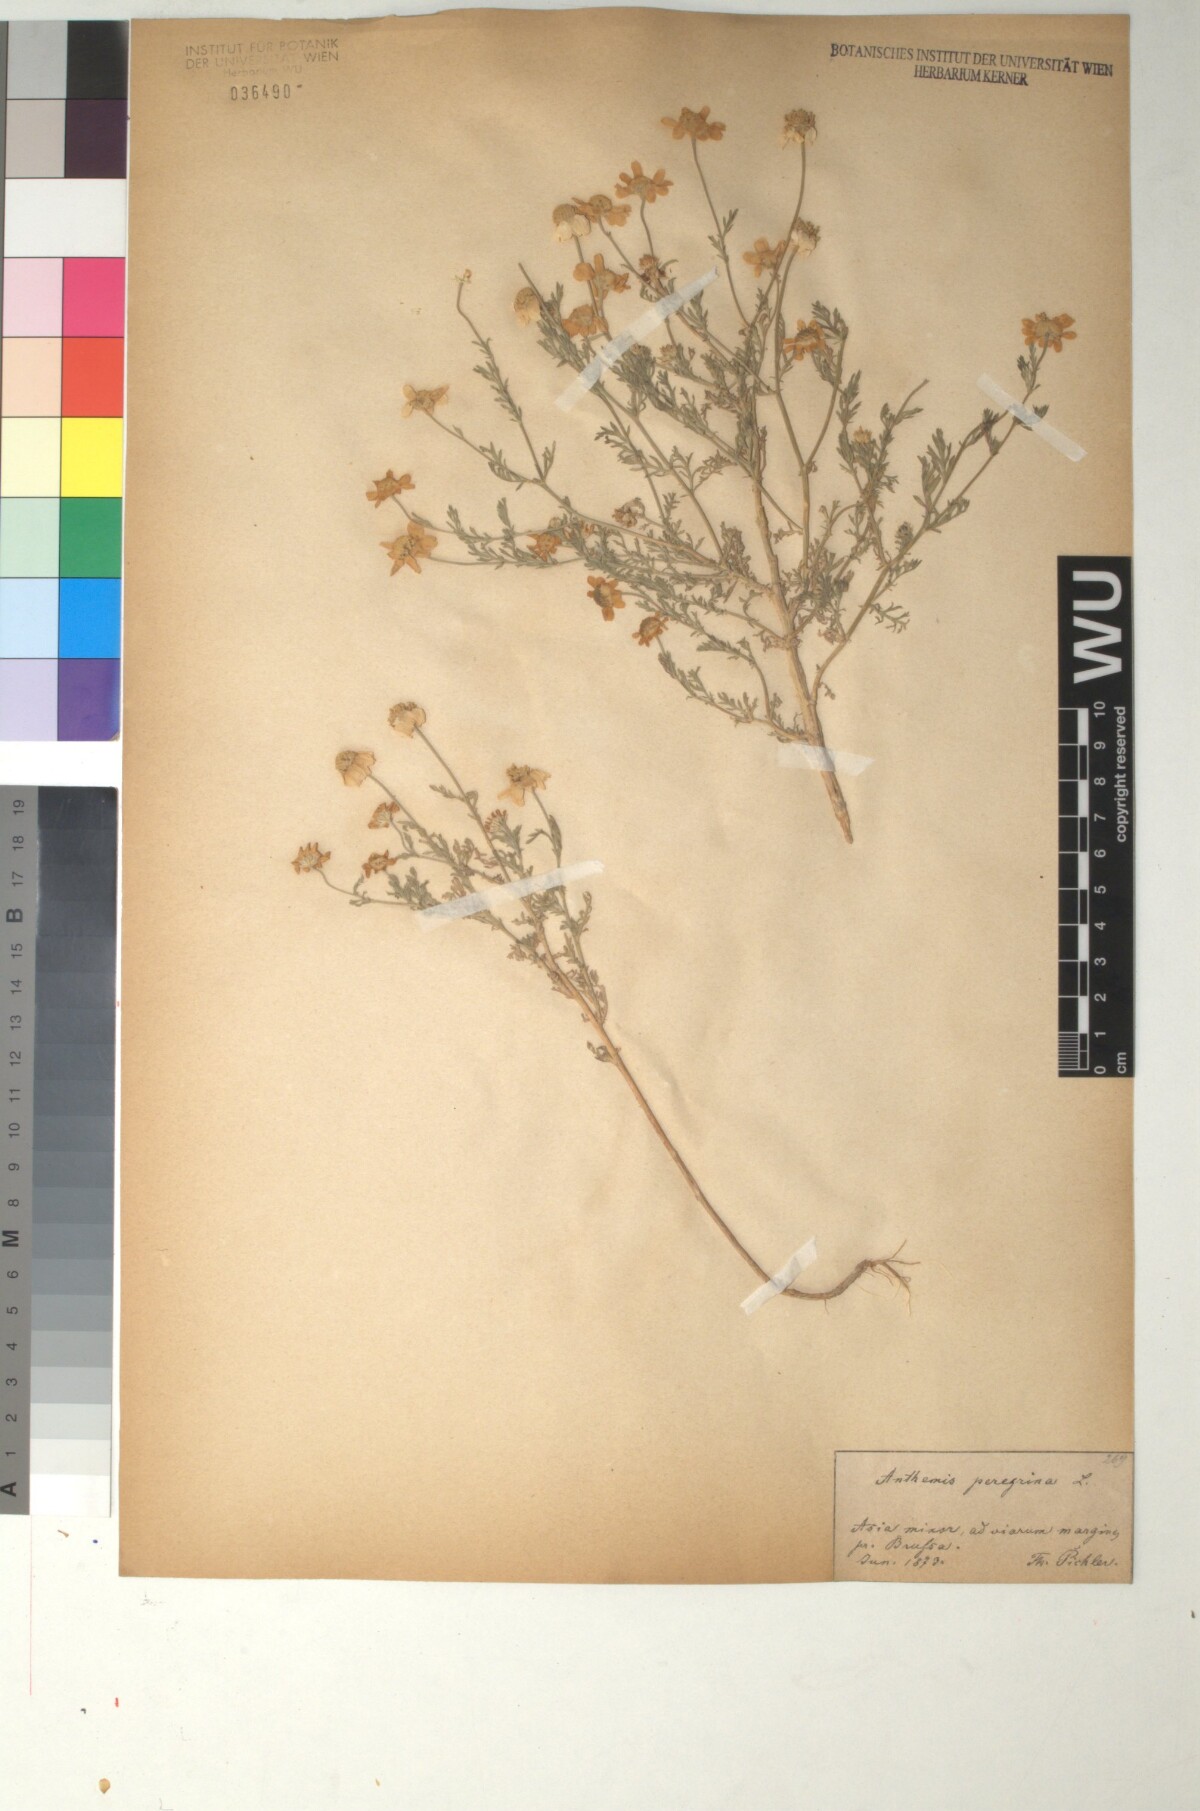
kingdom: Plantae
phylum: Tracheophyta
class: Magnoliopsida
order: Asterales
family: Asteraceae
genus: Anthemis
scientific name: Anthemis tomentosa
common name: Woolly chamomile
